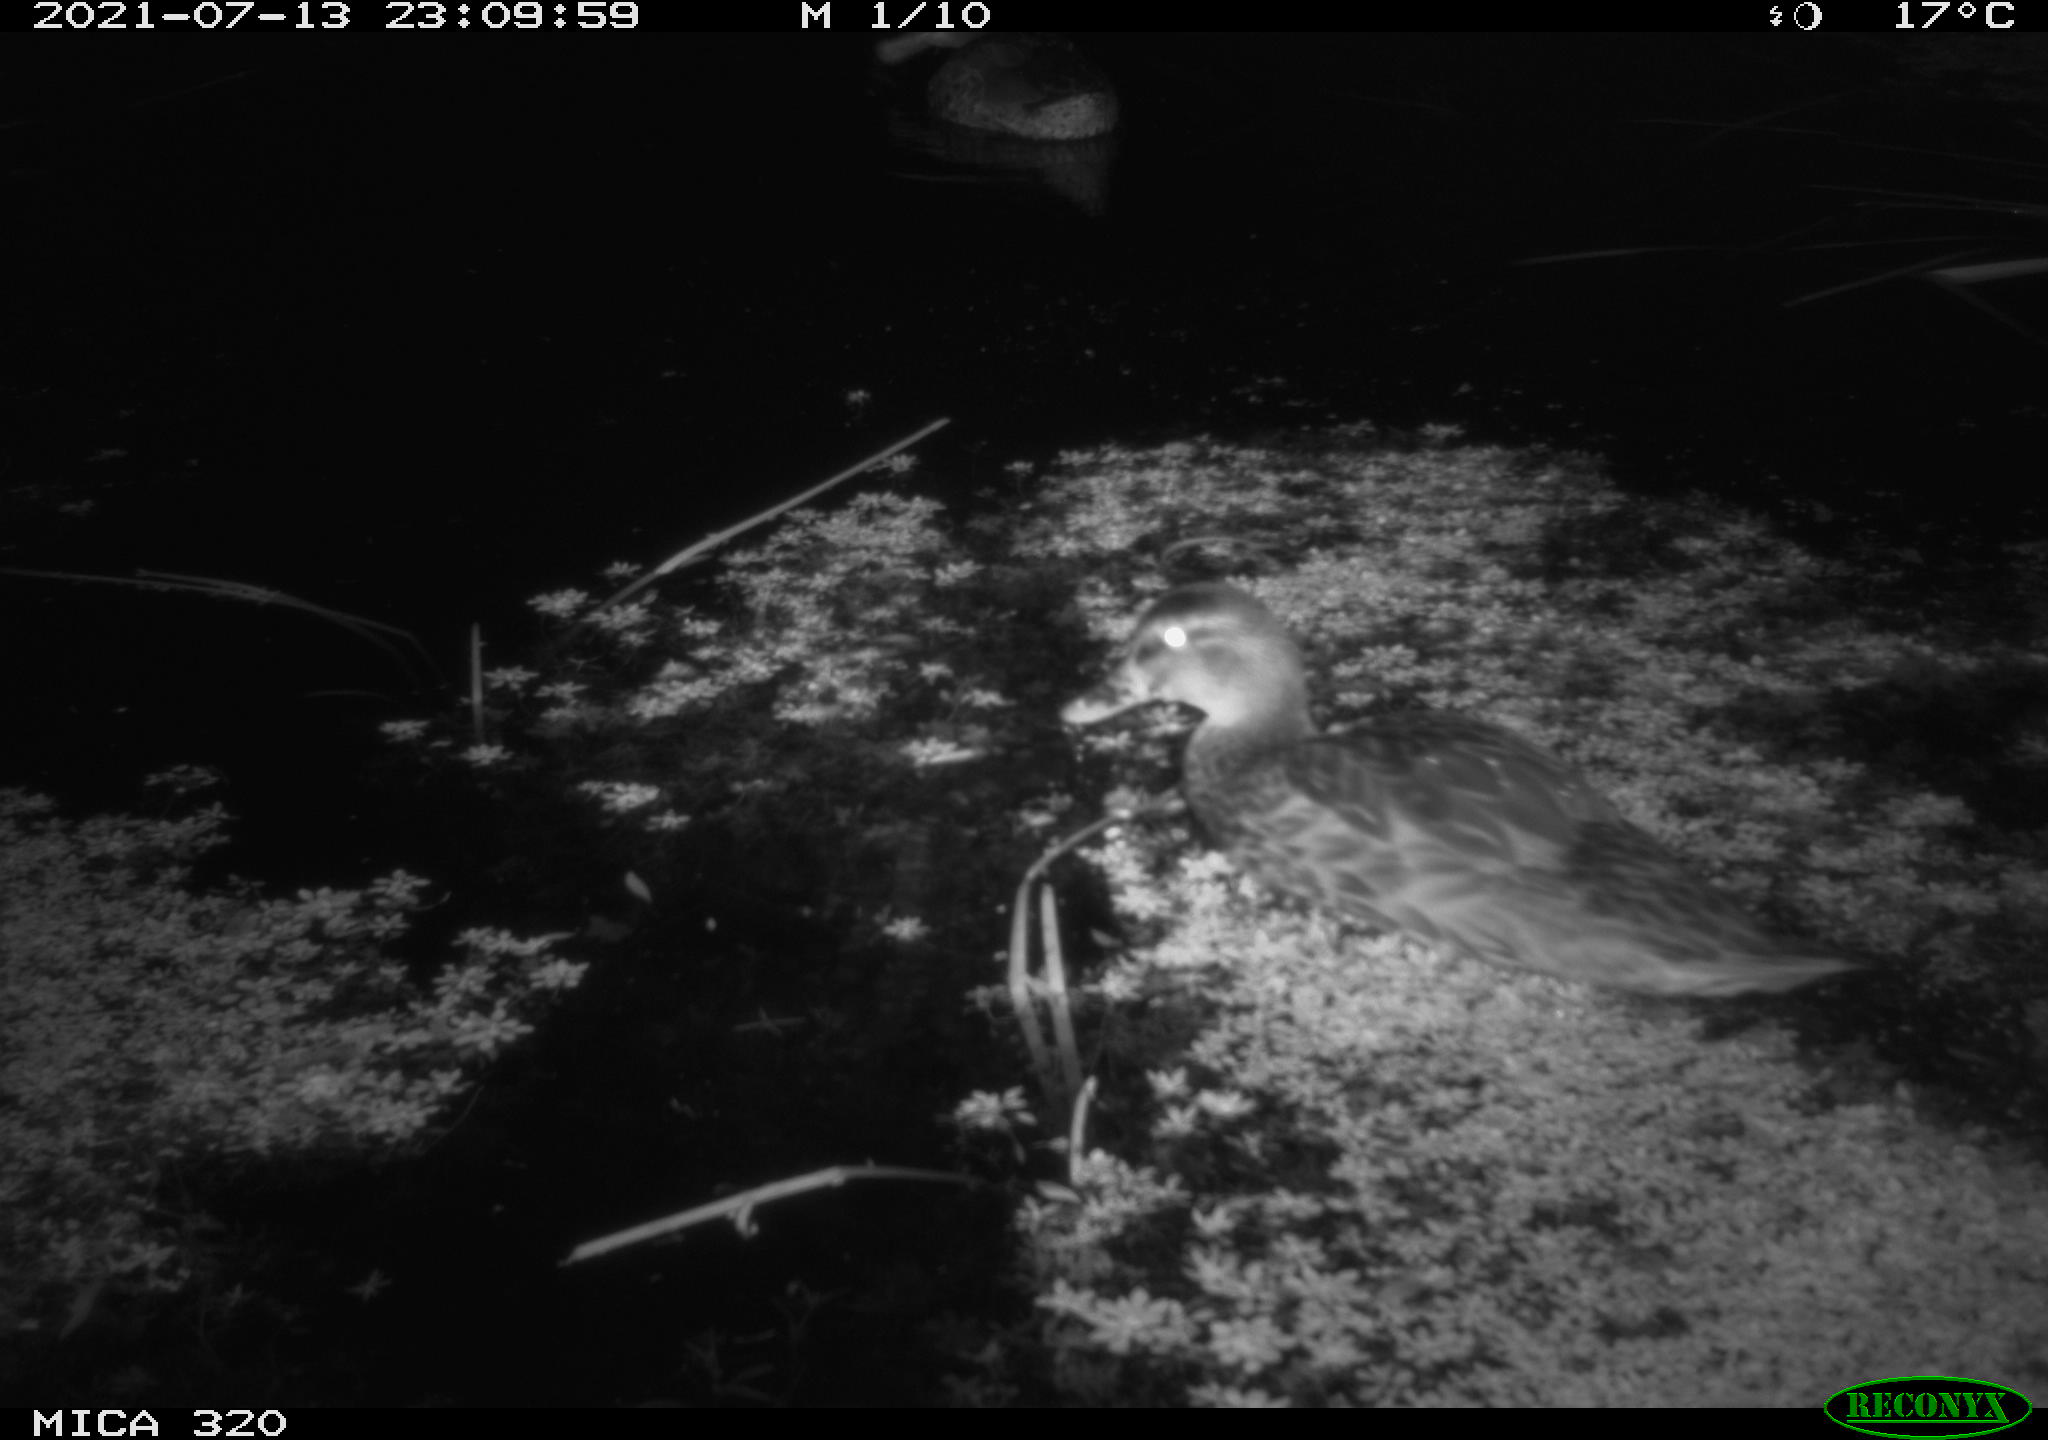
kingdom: Animalia
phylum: Chordata
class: Aves
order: Anseriformes
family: Anatidae
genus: Anas
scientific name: Anas platyrhynchos
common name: Mallard
